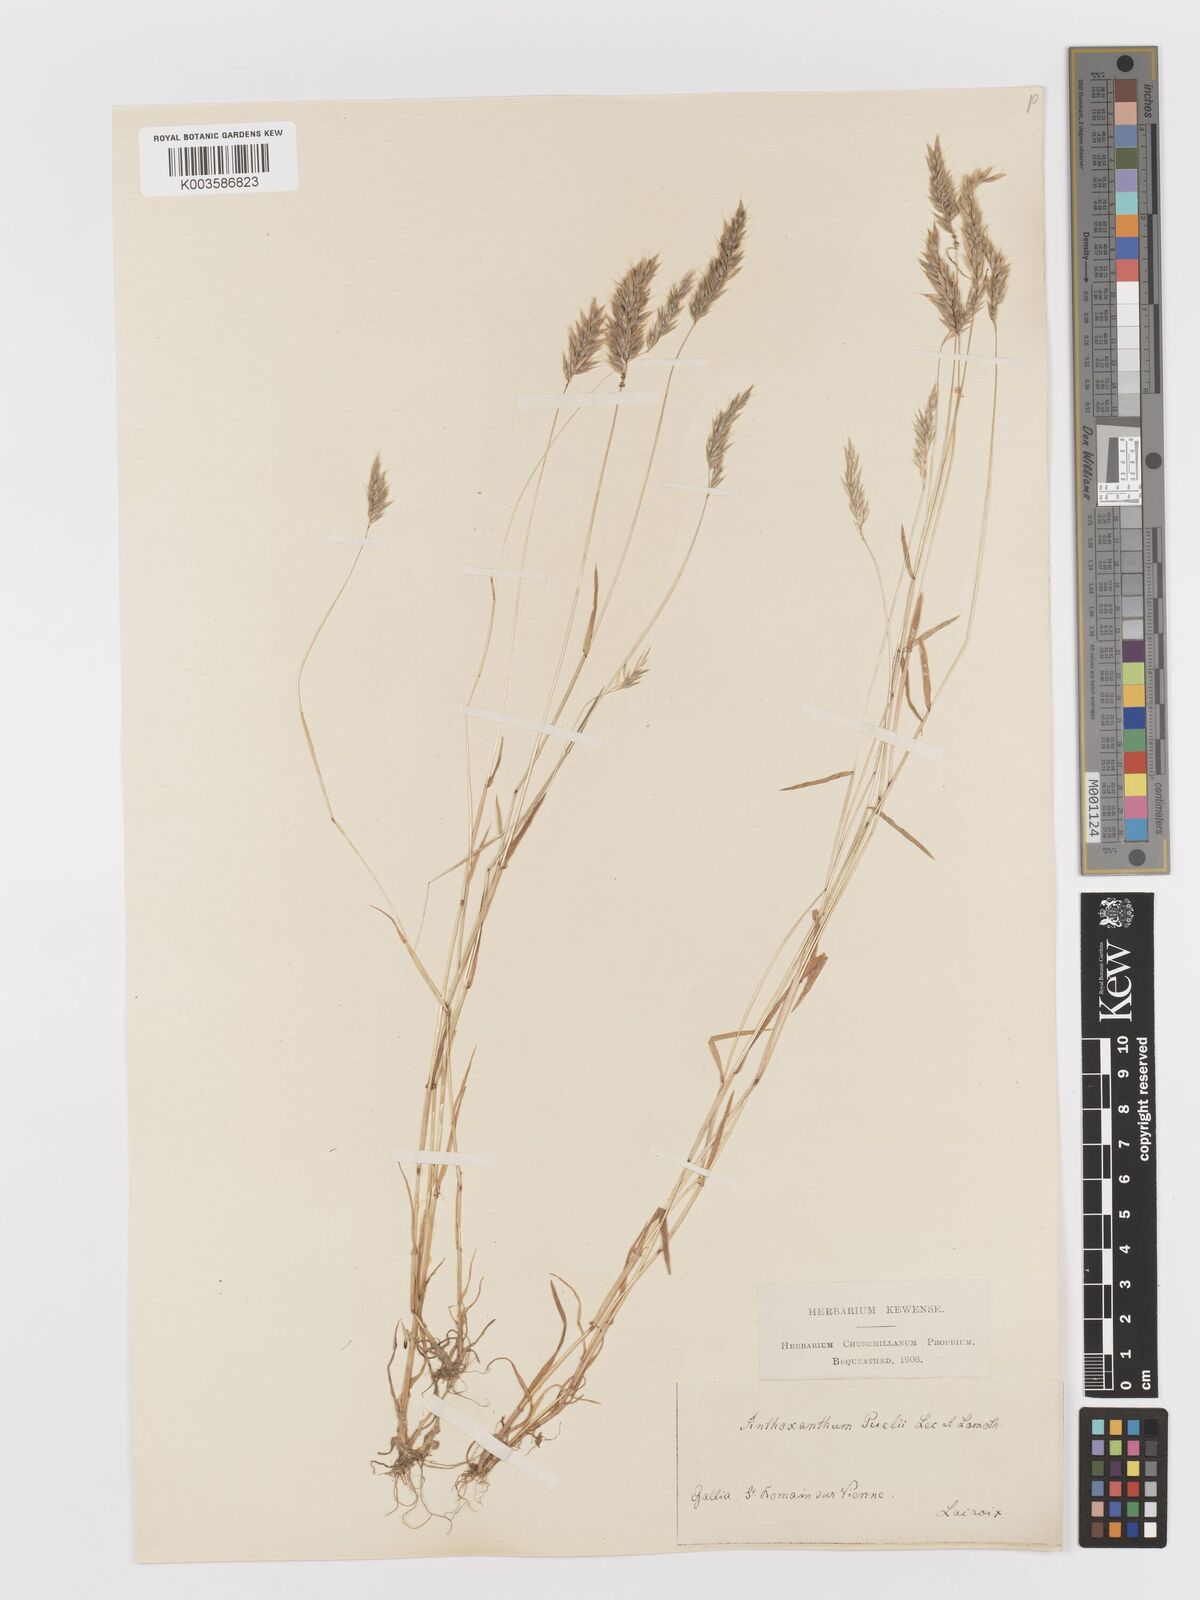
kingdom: Plantae
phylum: Tracheophyta
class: Liliopsida
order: Poales
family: Poaceae
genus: Anthoxanthum
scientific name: Anthoxanthum
